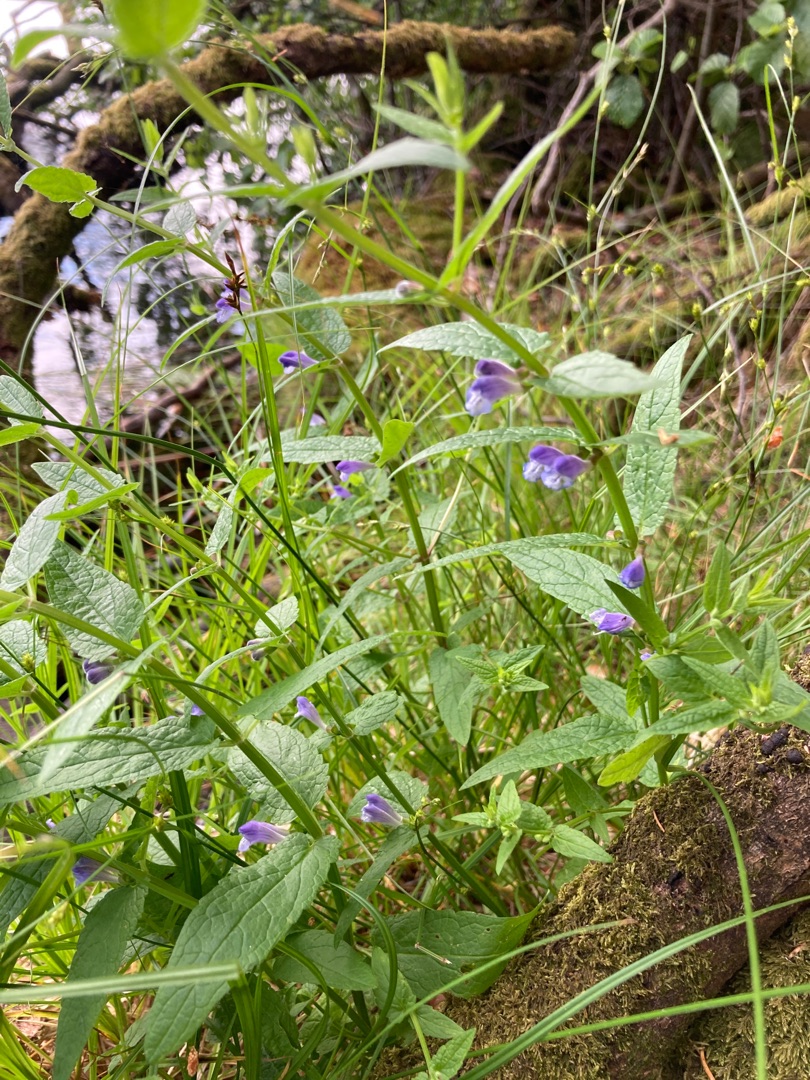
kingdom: Plantae
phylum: Tracheophyta
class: Magnoliopsida
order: Lamiales
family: Lamiaceae
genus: Scutellaria
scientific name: Scutellaria galericulata
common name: Almindelig skjolddrager
